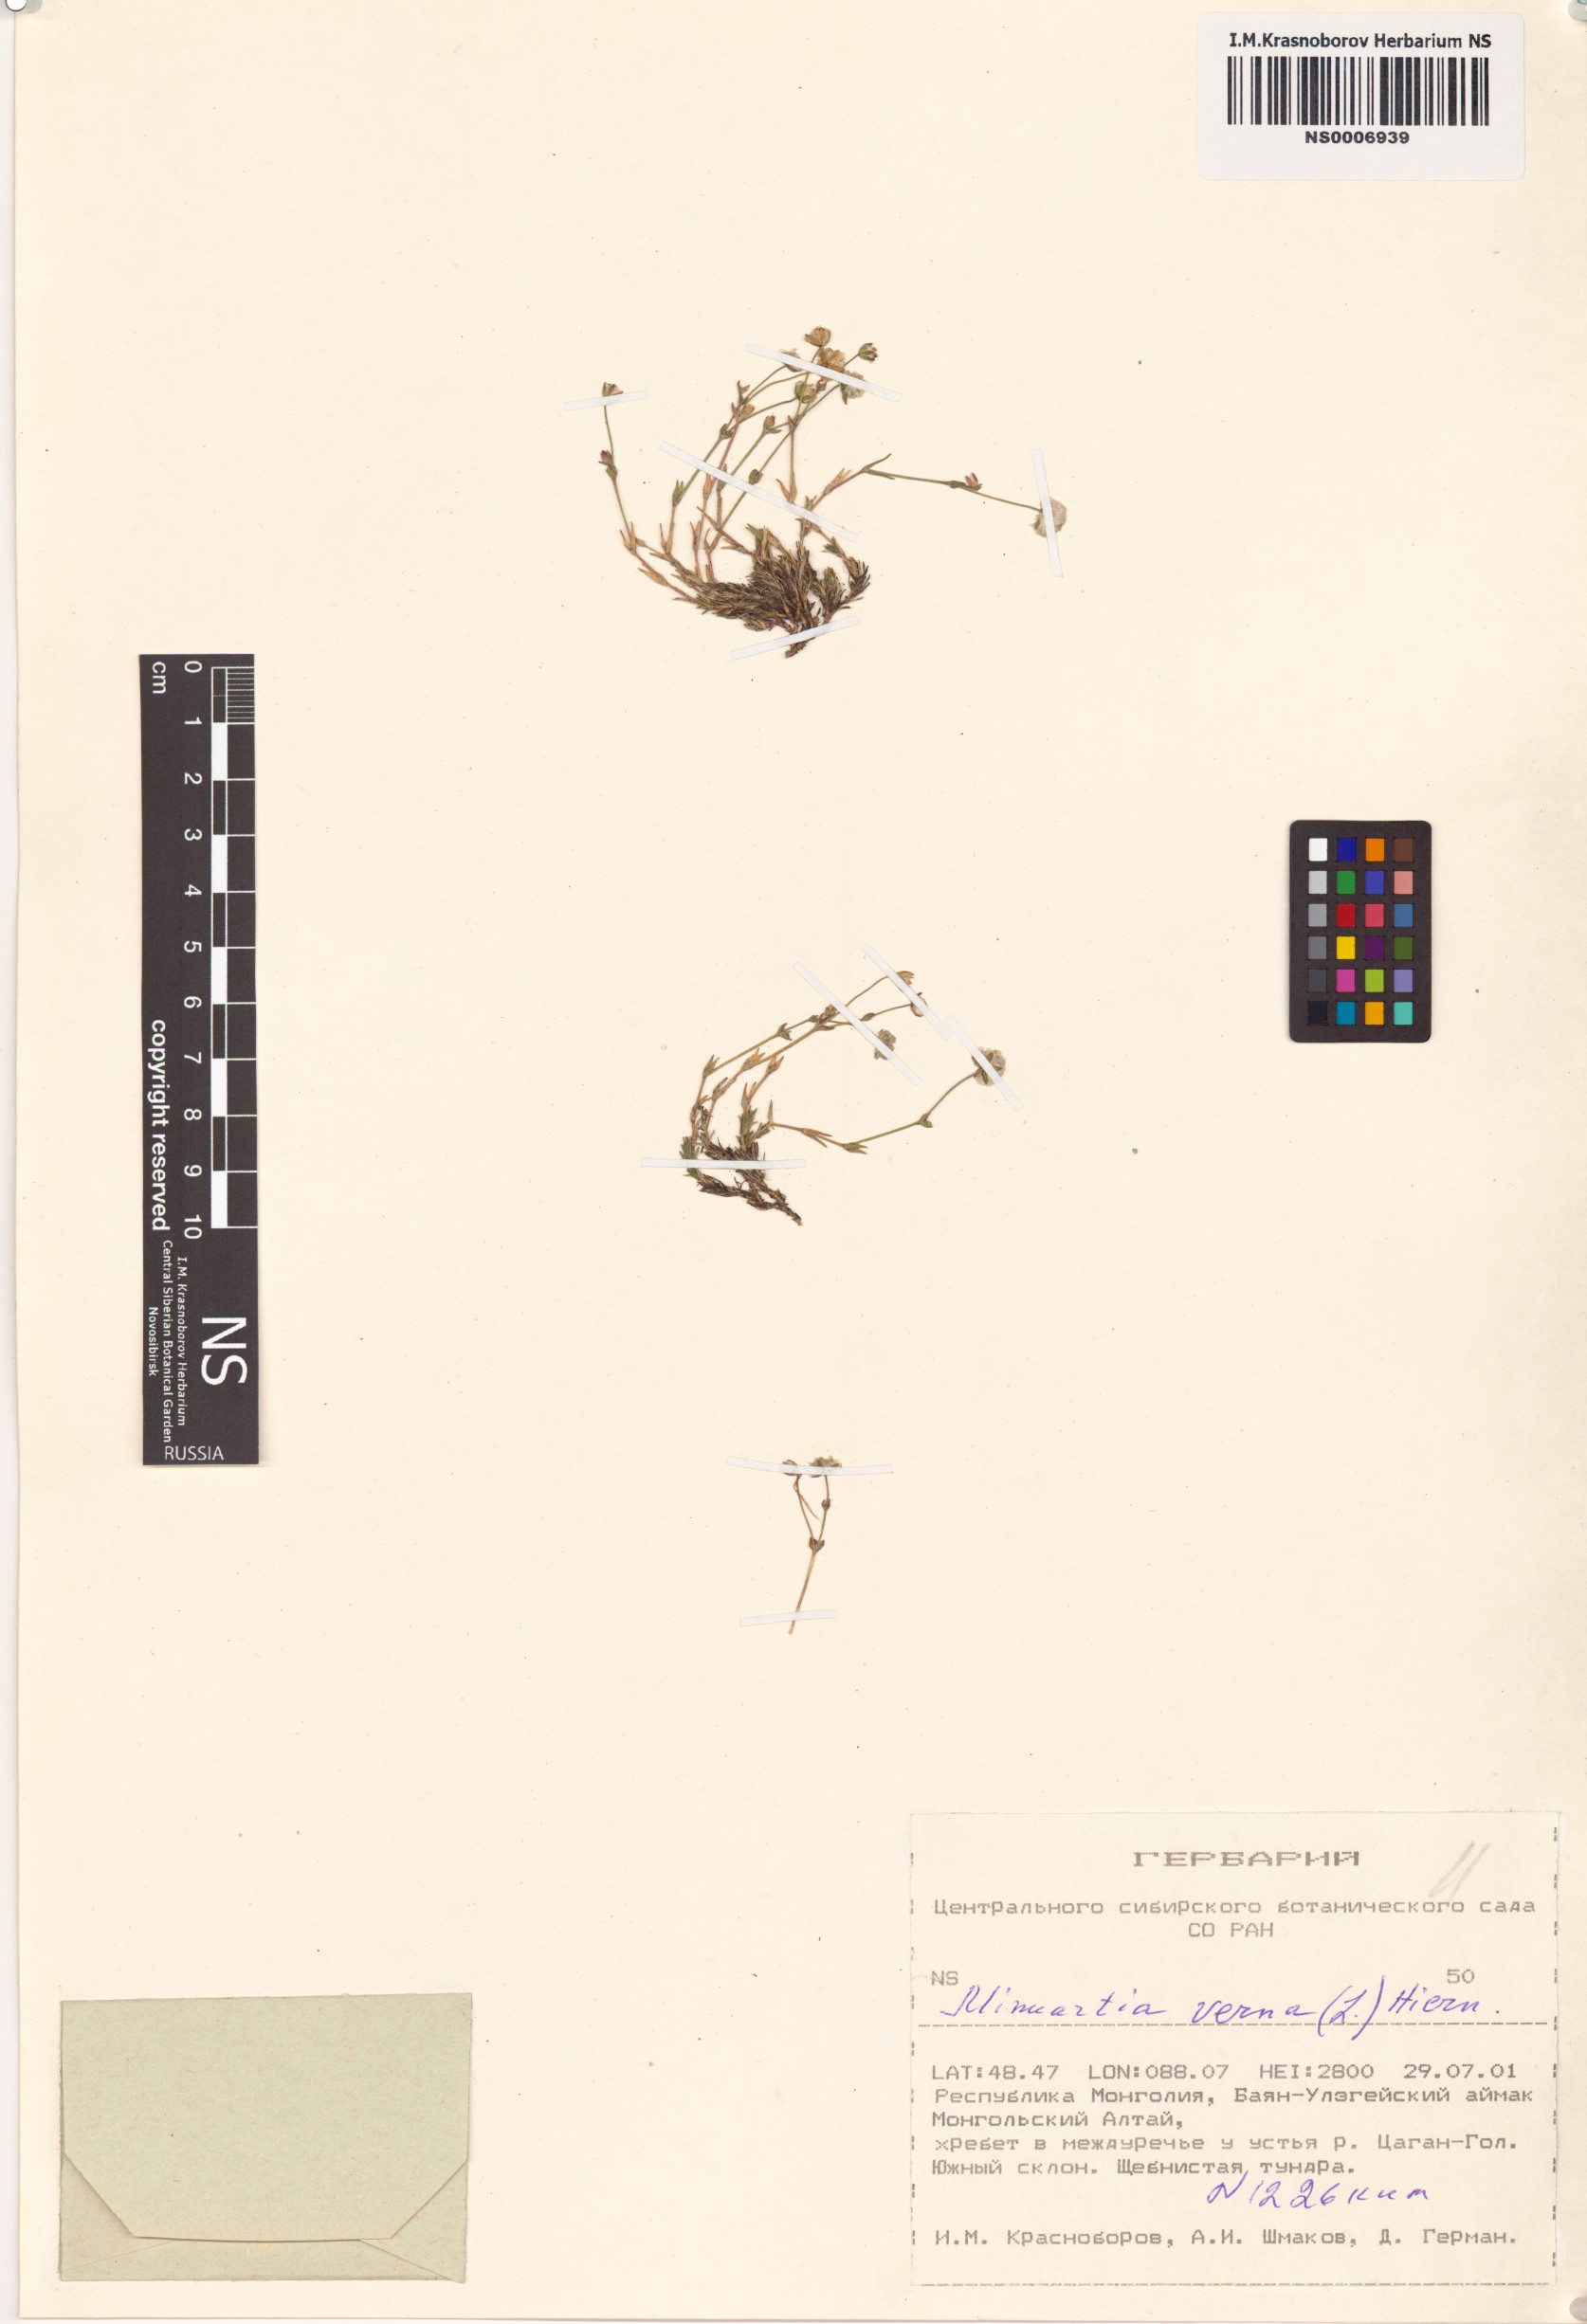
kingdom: Plantae
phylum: Tracheophyta
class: Magnoliopsida
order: Caryophyllales
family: Caryophyllaceae
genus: Sabulina
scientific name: Sabulina verna
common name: Spring sandwort
